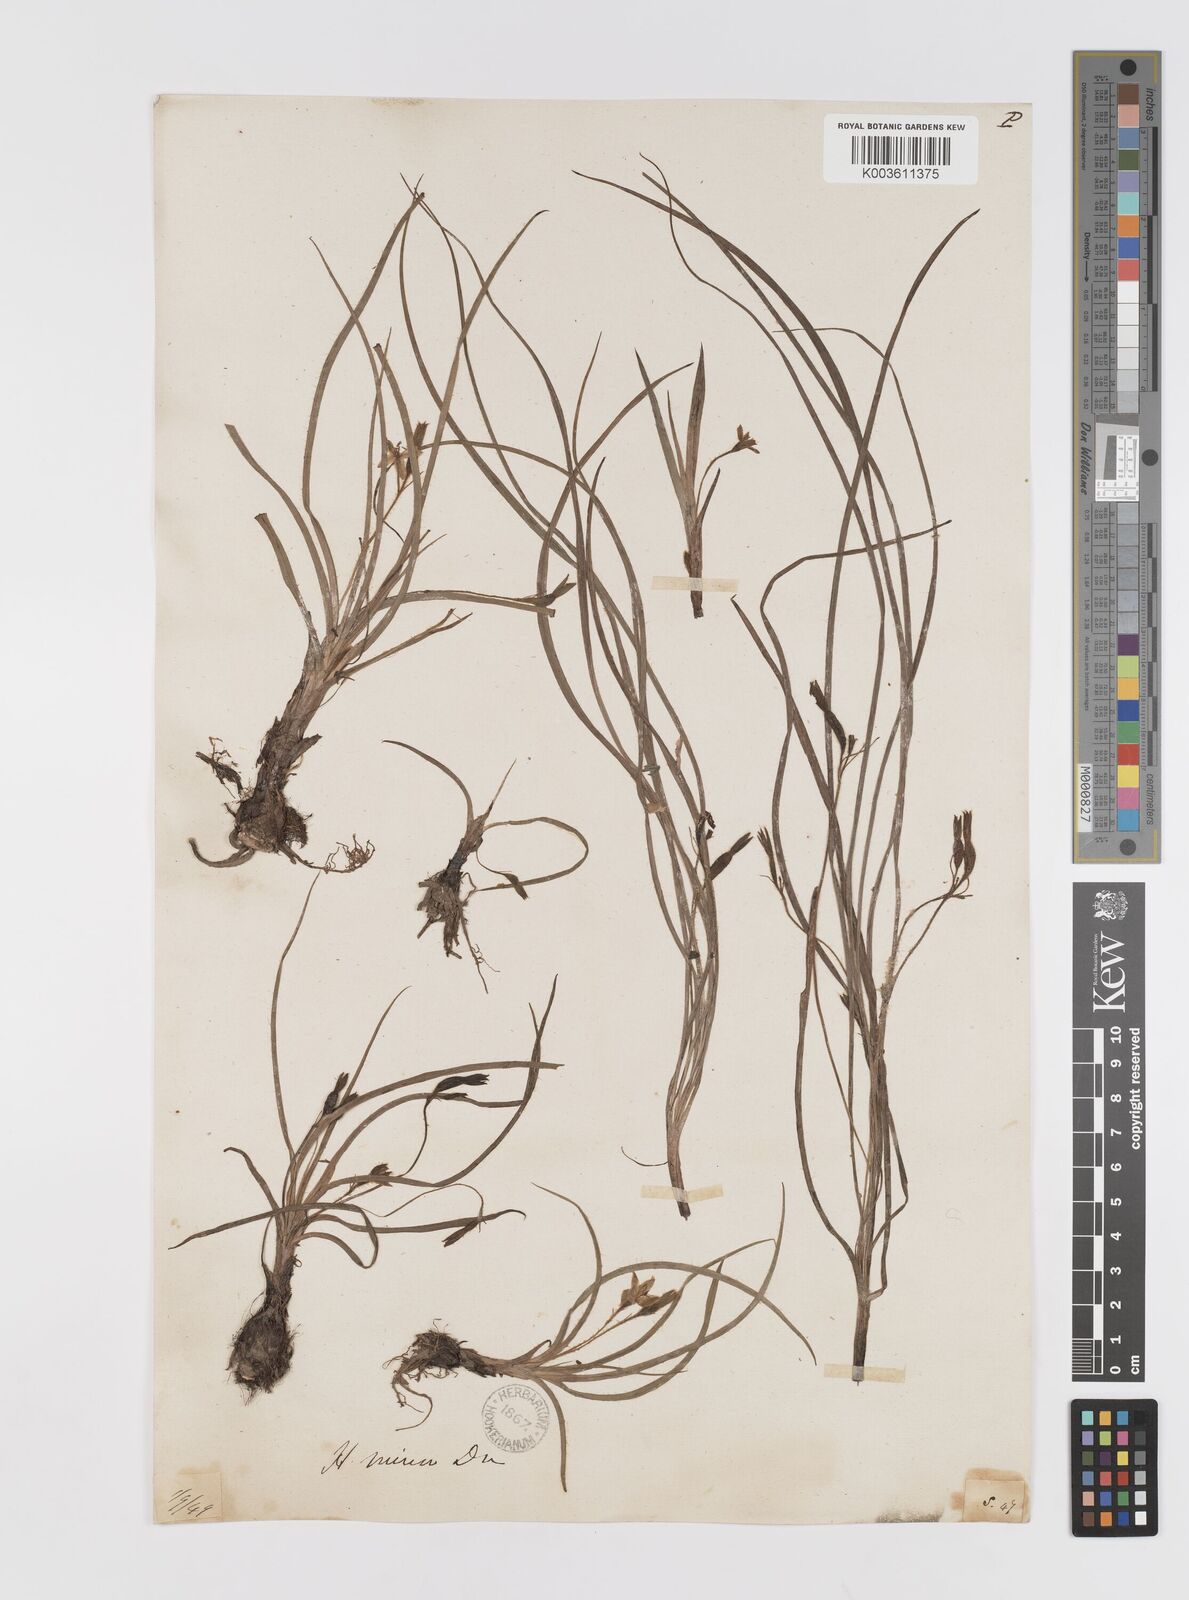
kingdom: Plantae
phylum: Tracheophyta
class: Liliopsida
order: Asparagales
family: Hypoxidaceae
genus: Hypoxis
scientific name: Hypoxis aurea
